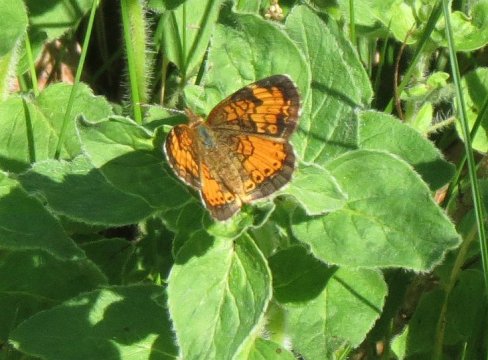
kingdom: Animalia
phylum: Arthropoda
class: Insecta
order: Lepidoptera
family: Nymphalidae
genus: Phyciodes
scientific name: Phyciodes tharos
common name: Northern Crescent
